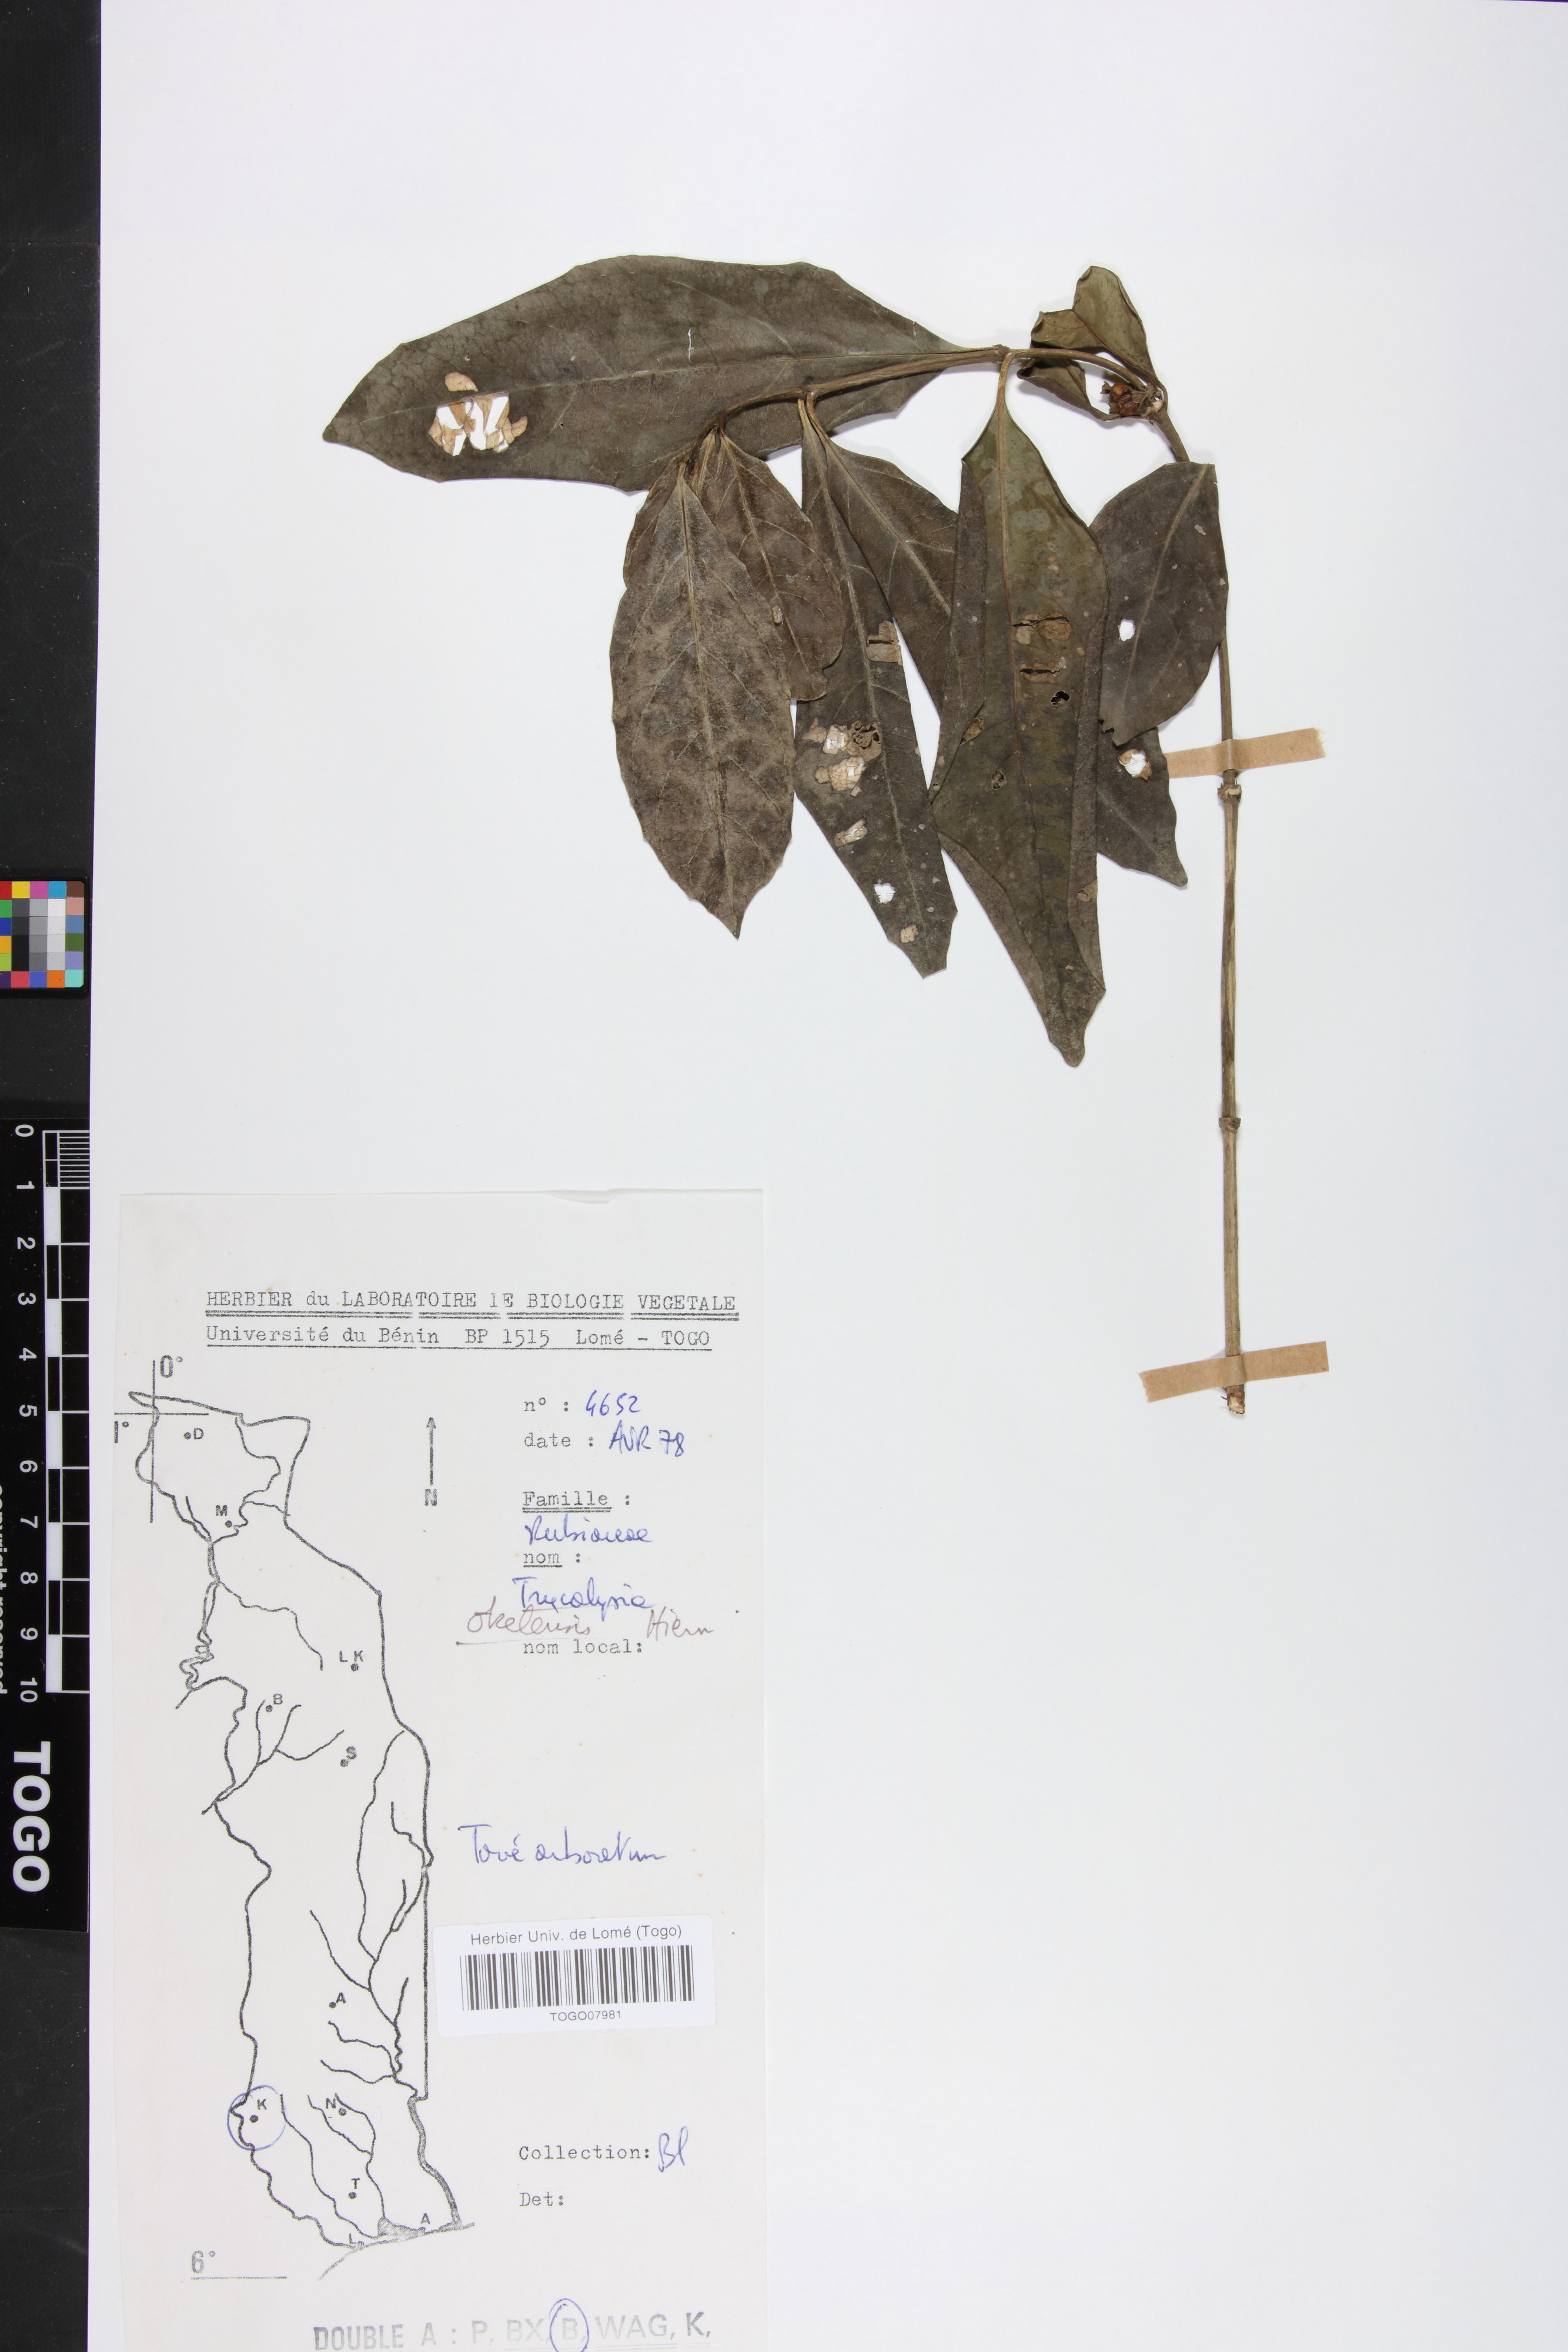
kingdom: Plantae
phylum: Tracheophyta
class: Magnoliopsida
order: Gentianales
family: Rubiaceae
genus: Tricalysia
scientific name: Tricalysia okelensis
